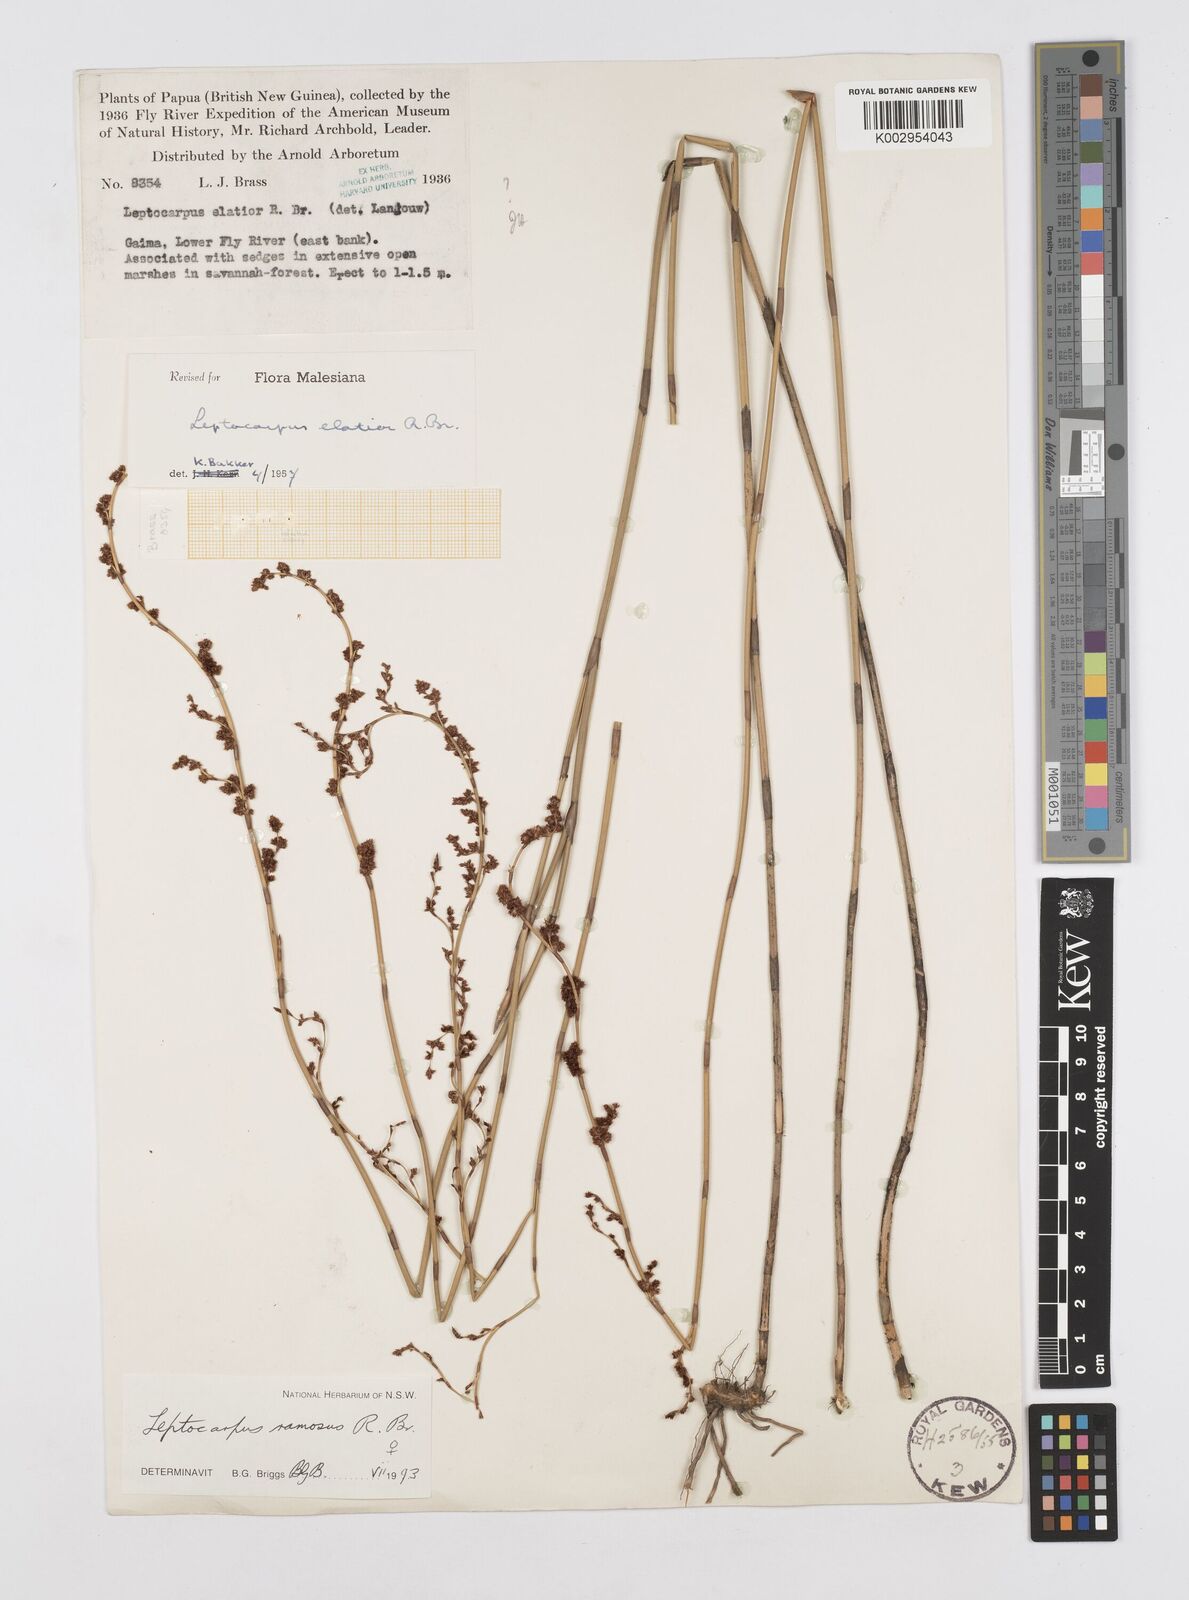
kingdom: Plantae
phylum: Tracheophyta
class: Liliopsida
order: Poales
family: Restionaceae
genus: Dapsilanthus
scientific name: Dapsilanthus ramosus
